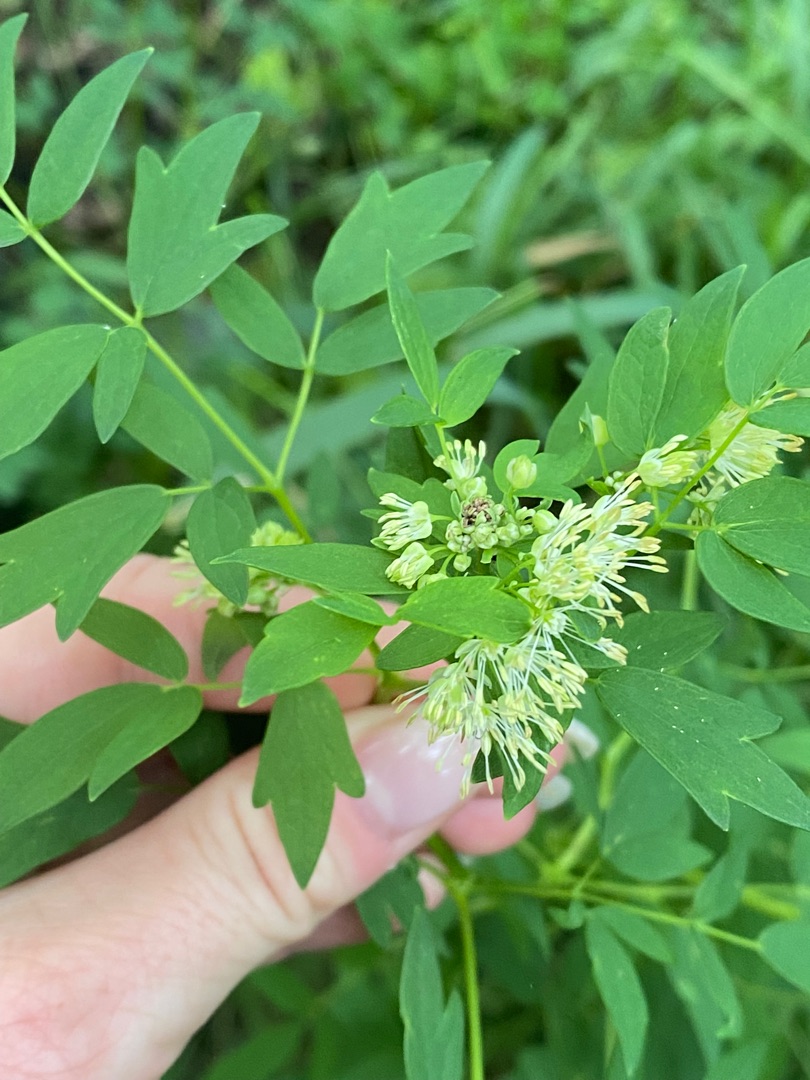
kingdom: Plantae
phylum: Tracheophyta
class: Magnoliopsida
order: Ranunculales
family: Ranunculaceae
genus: Thalictrum
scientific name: Thalictrum flavum
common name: Gul frøstjerne
